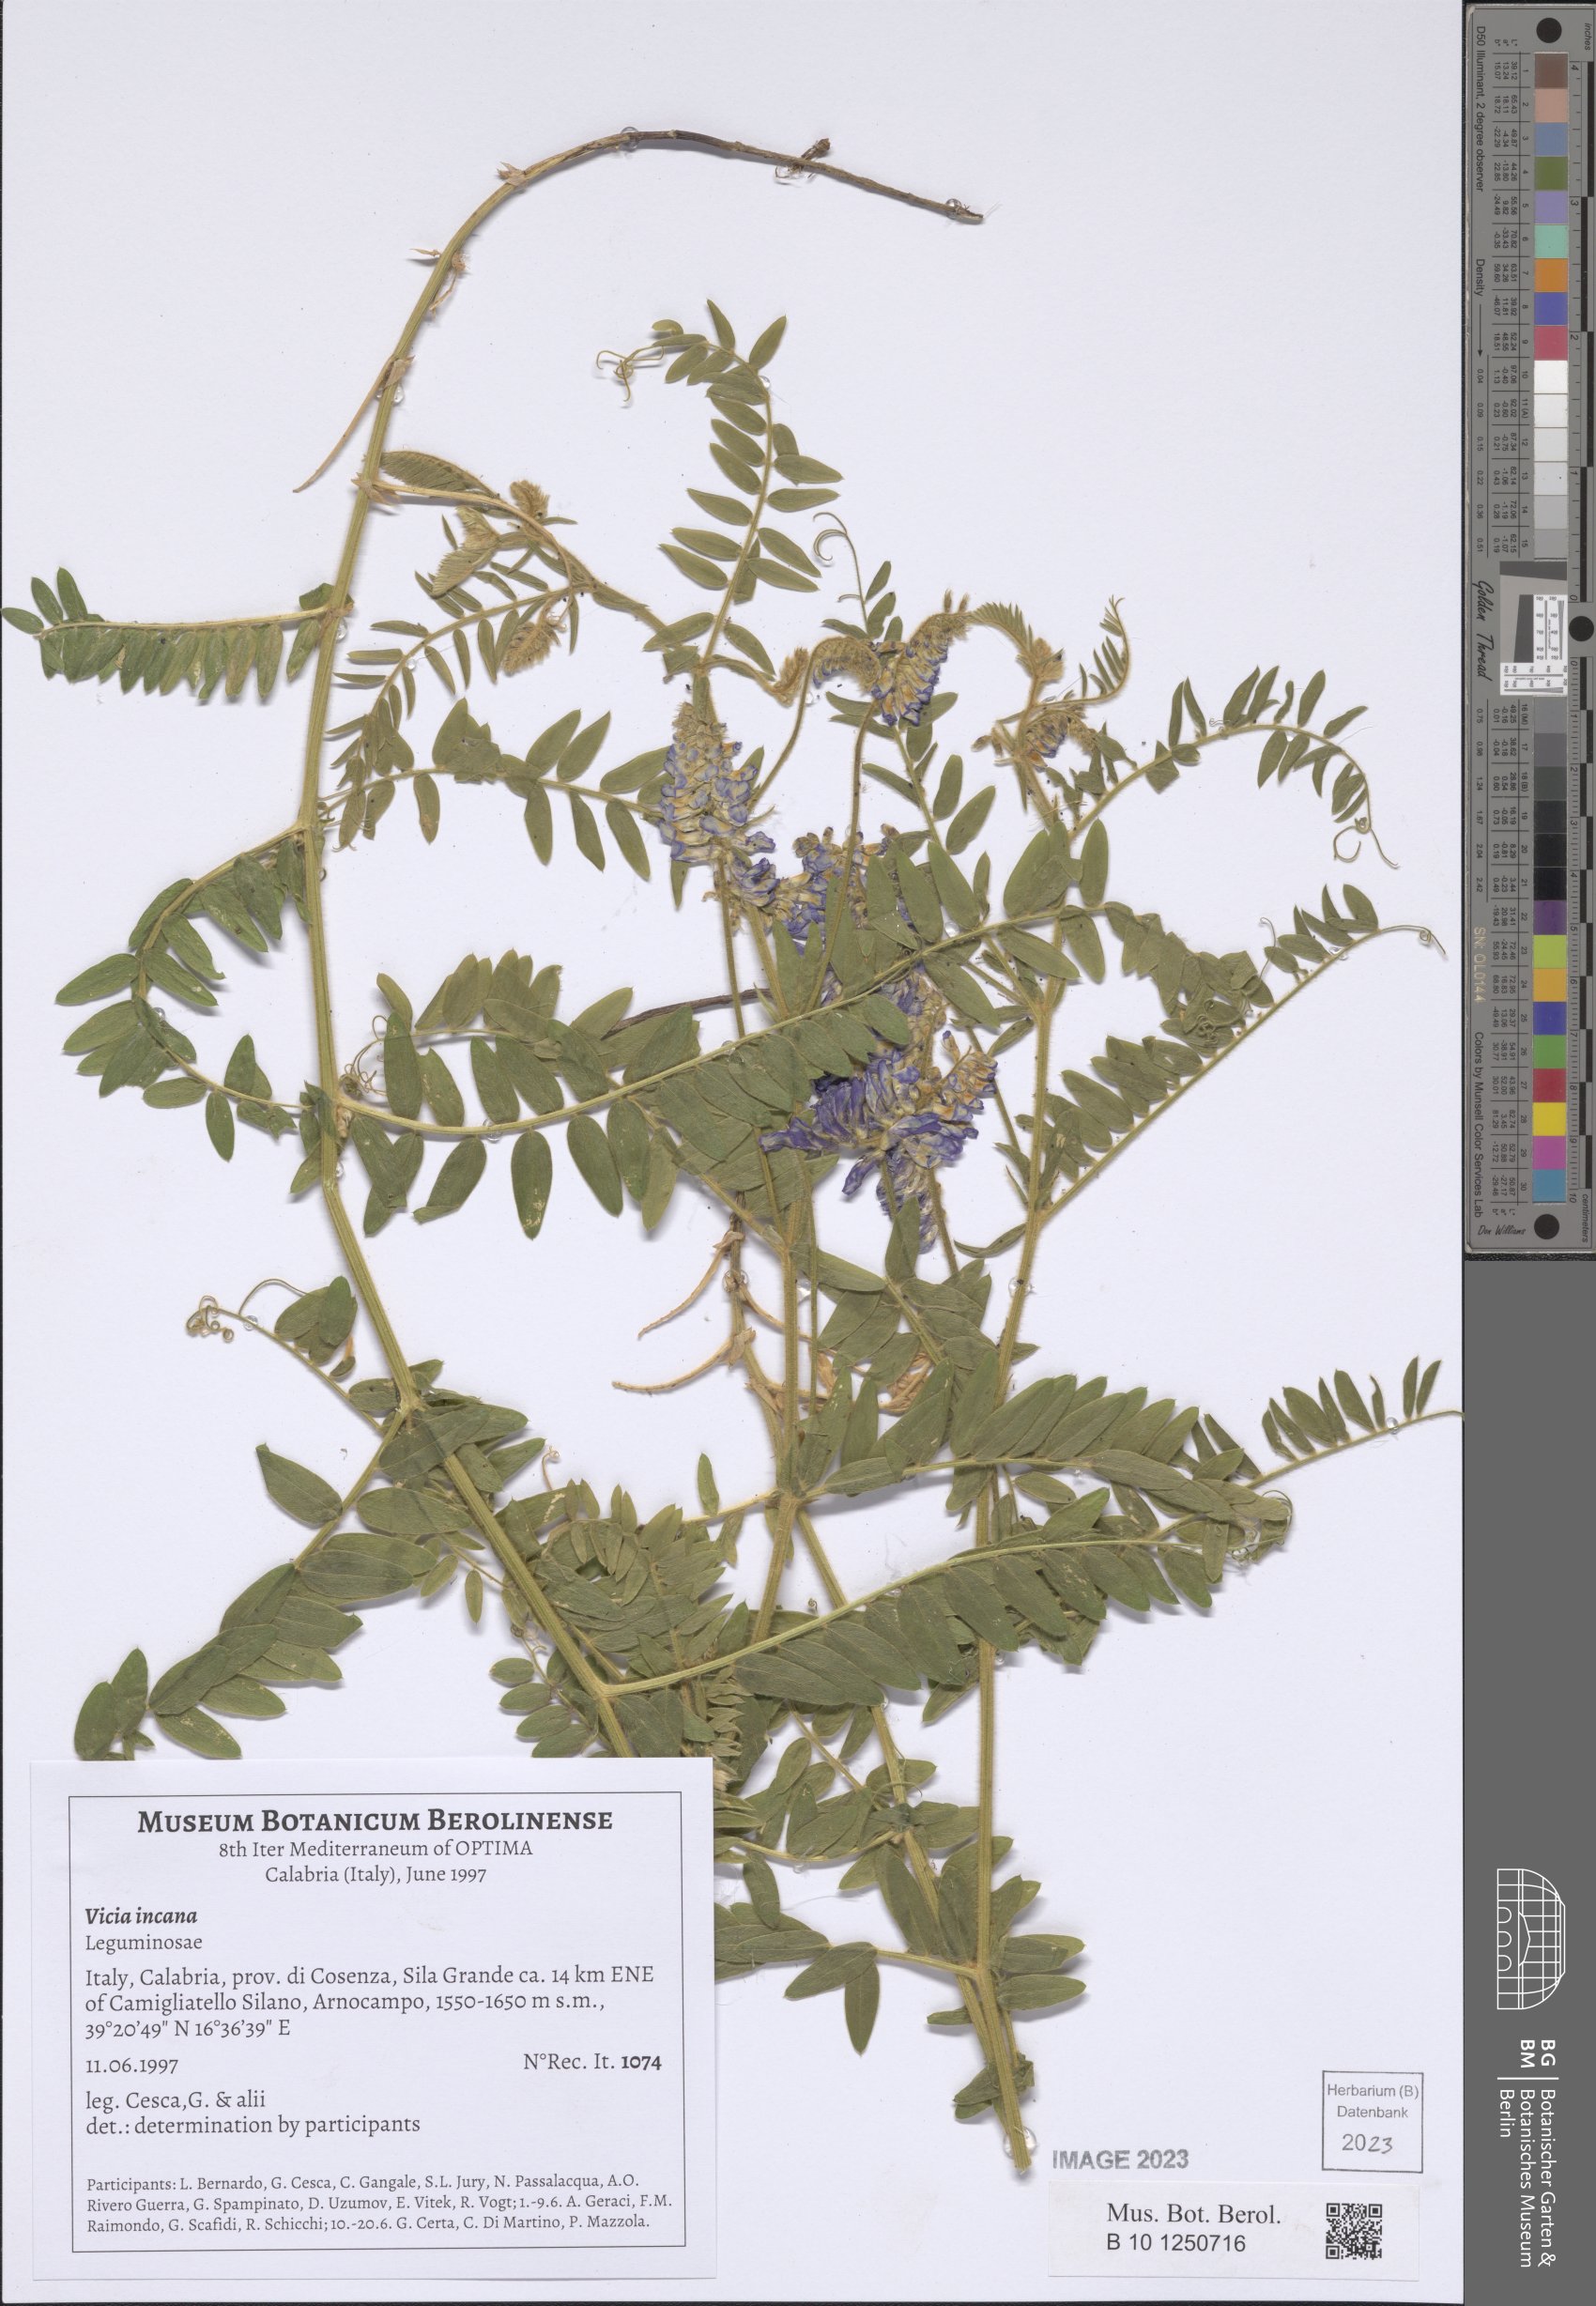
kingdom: Plantae
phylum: Tracheophyta
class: Magnoliopsida
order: Fabales
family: Fabaceae
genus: Vicia
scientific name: Vicia incana
